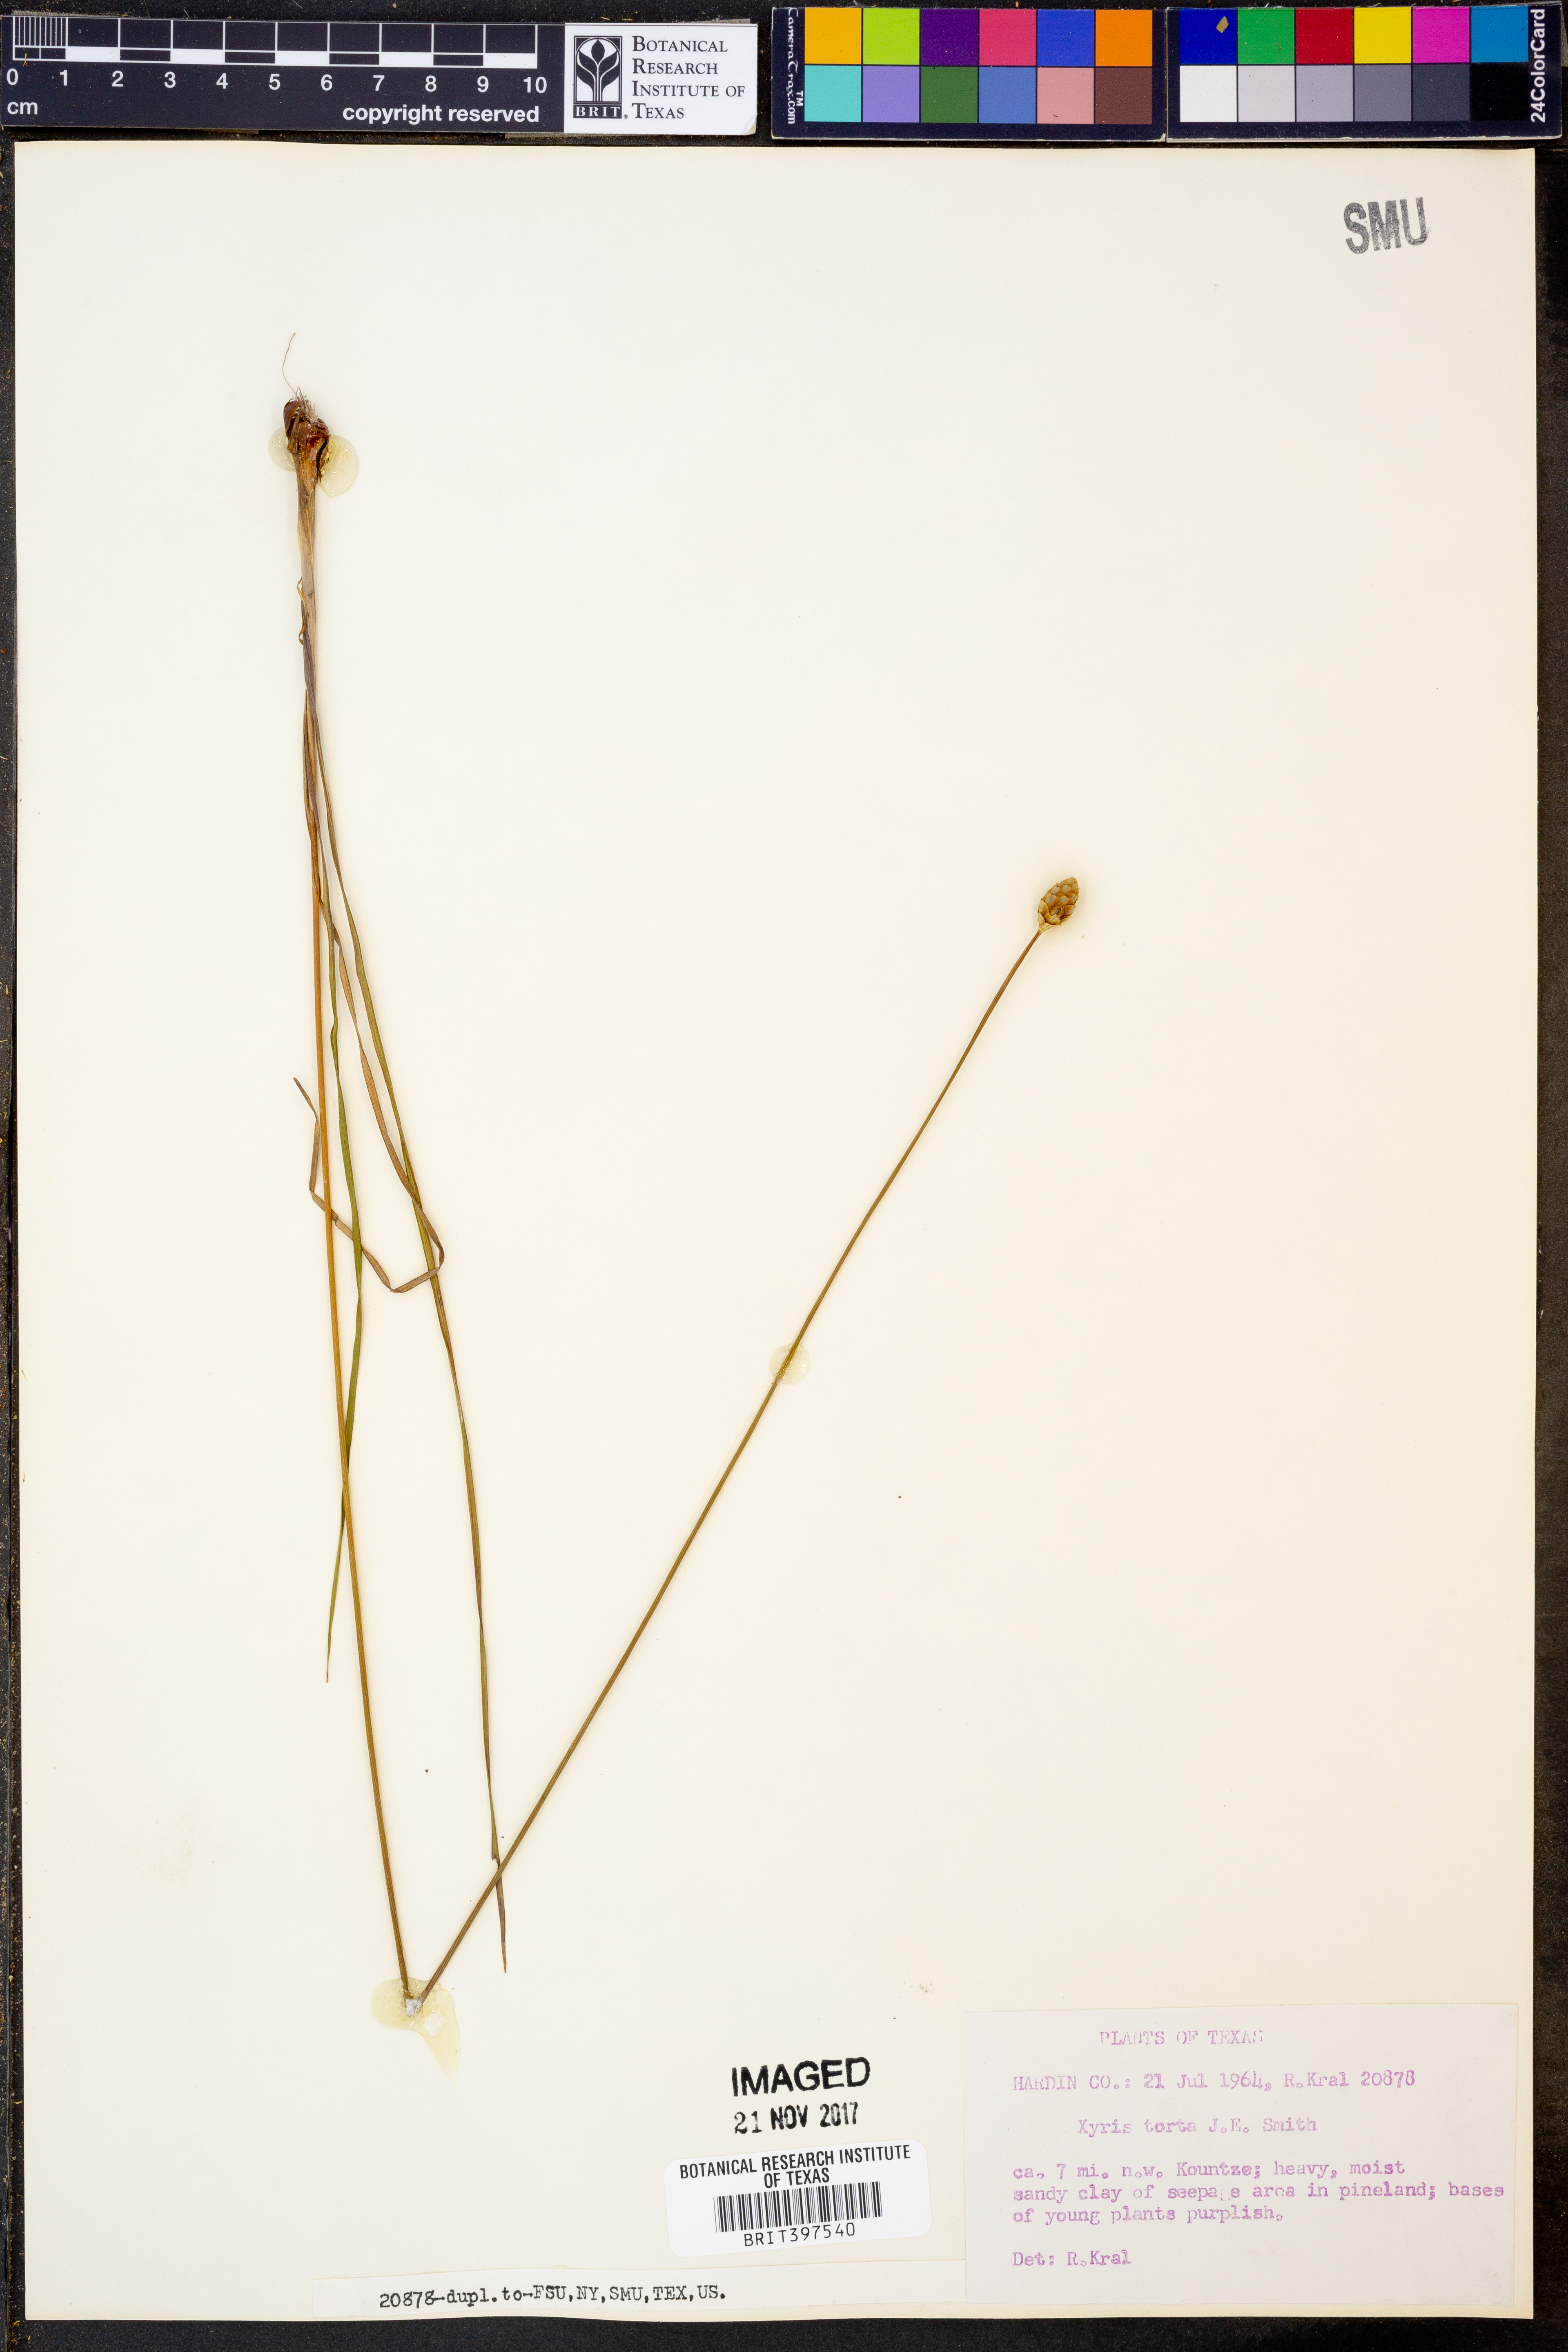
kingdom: Plantae
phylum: Tracheophyta
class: Liliopsida
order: Poales
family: Xyridaceae
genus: Xyris
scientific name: Xyris torta
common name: Common yelloweyed grass
